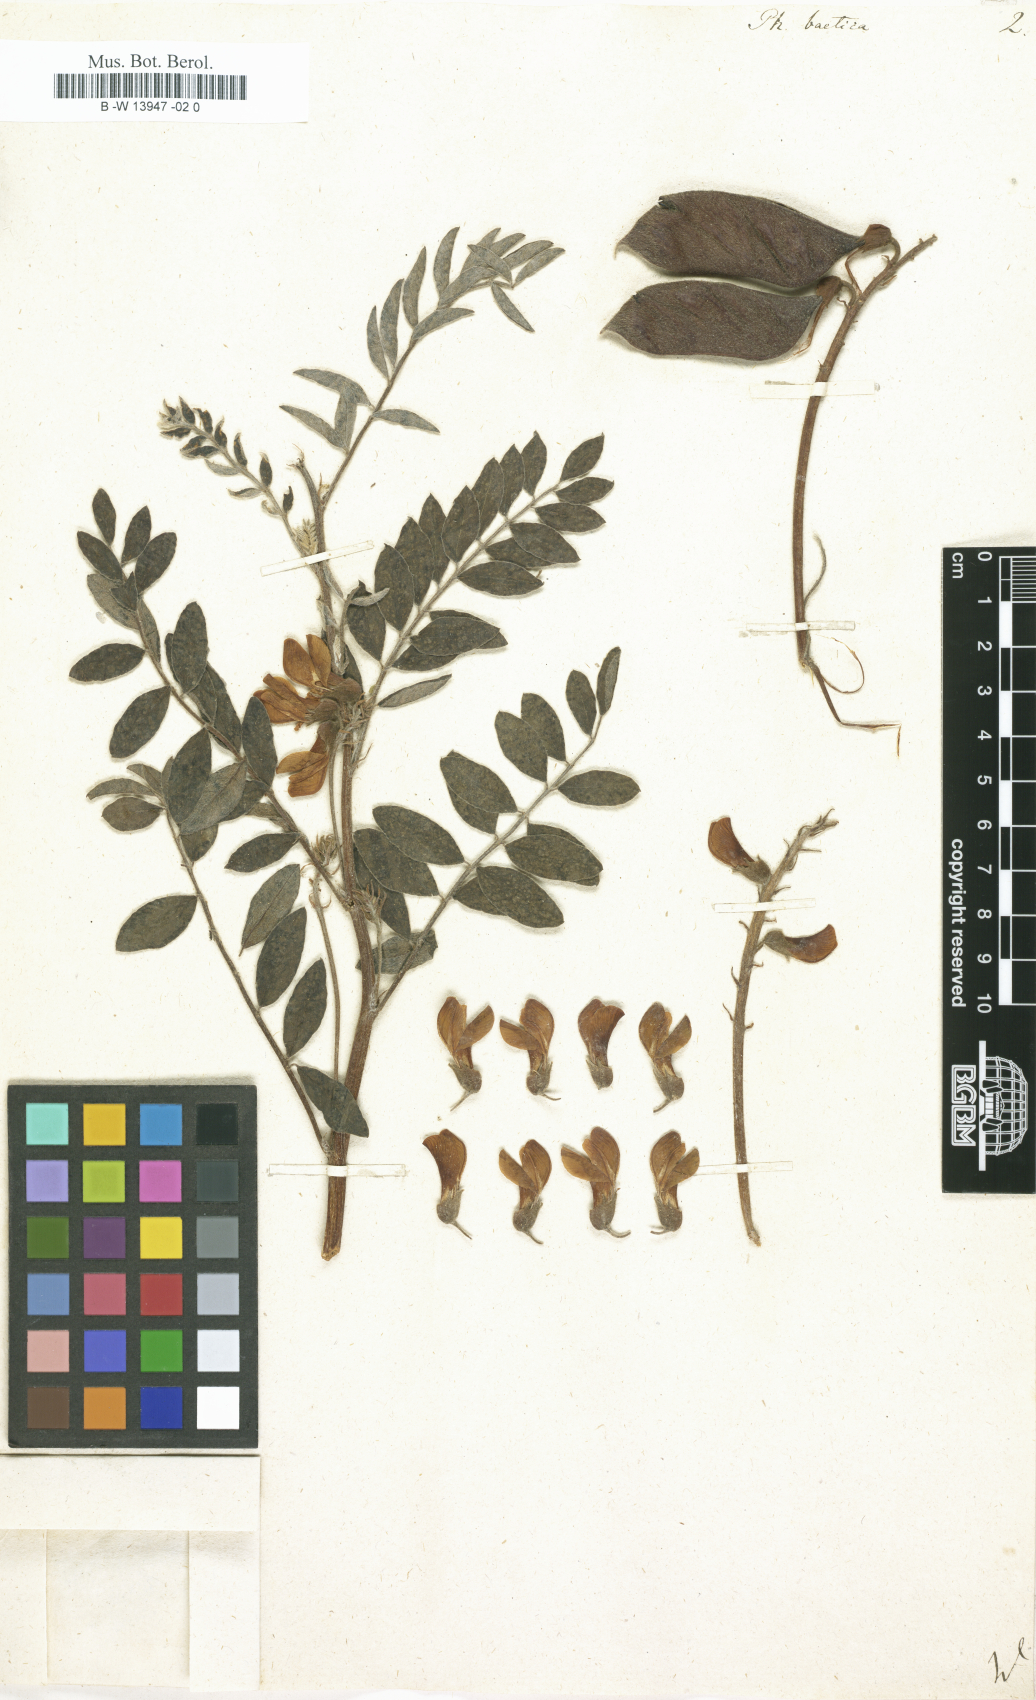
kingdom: Plantae
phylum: Tracheophyta
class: Magnoliopsida
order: Fabales
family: Fabaceae
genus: Erophaca
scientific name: Erophaca baetica
